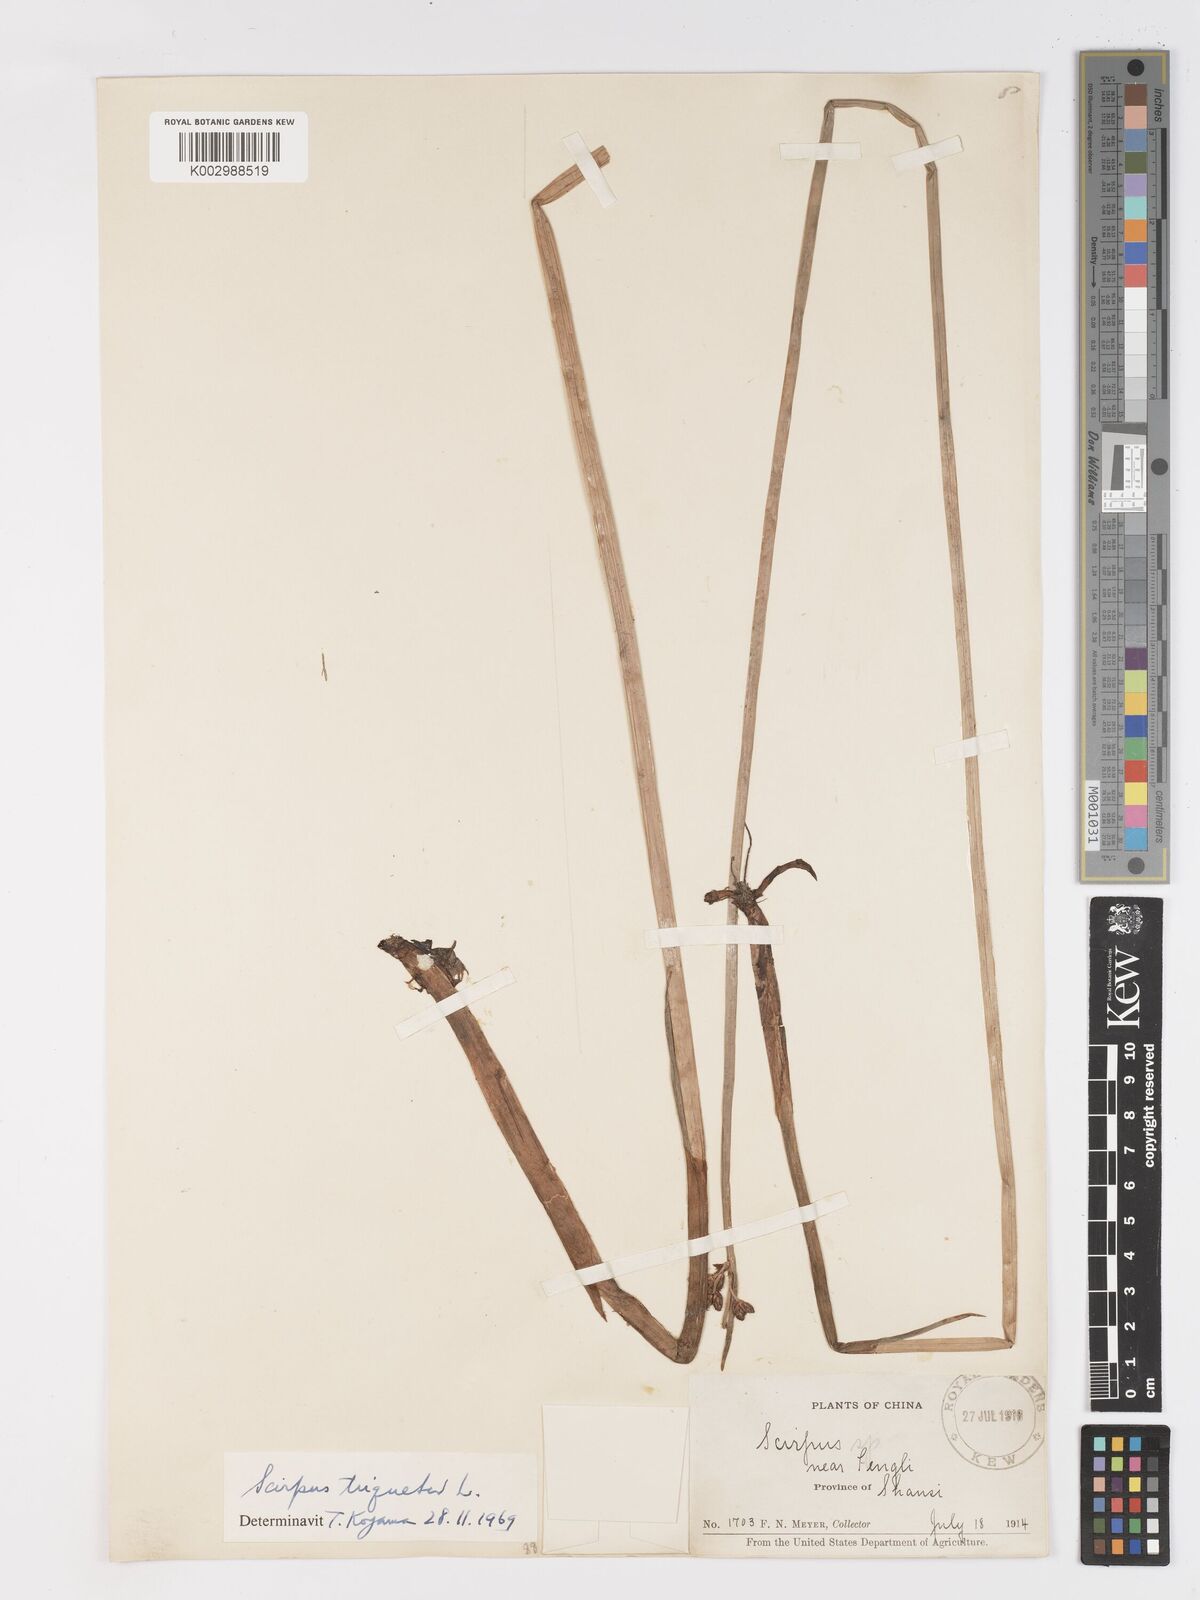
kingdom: Plantae
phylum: Tracheophyta
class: Liliopsida
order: Poales
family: Cyperaceae
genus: Schoenoplectus
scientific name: Schoenoplectus triqueter
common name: Triangular club-rush
